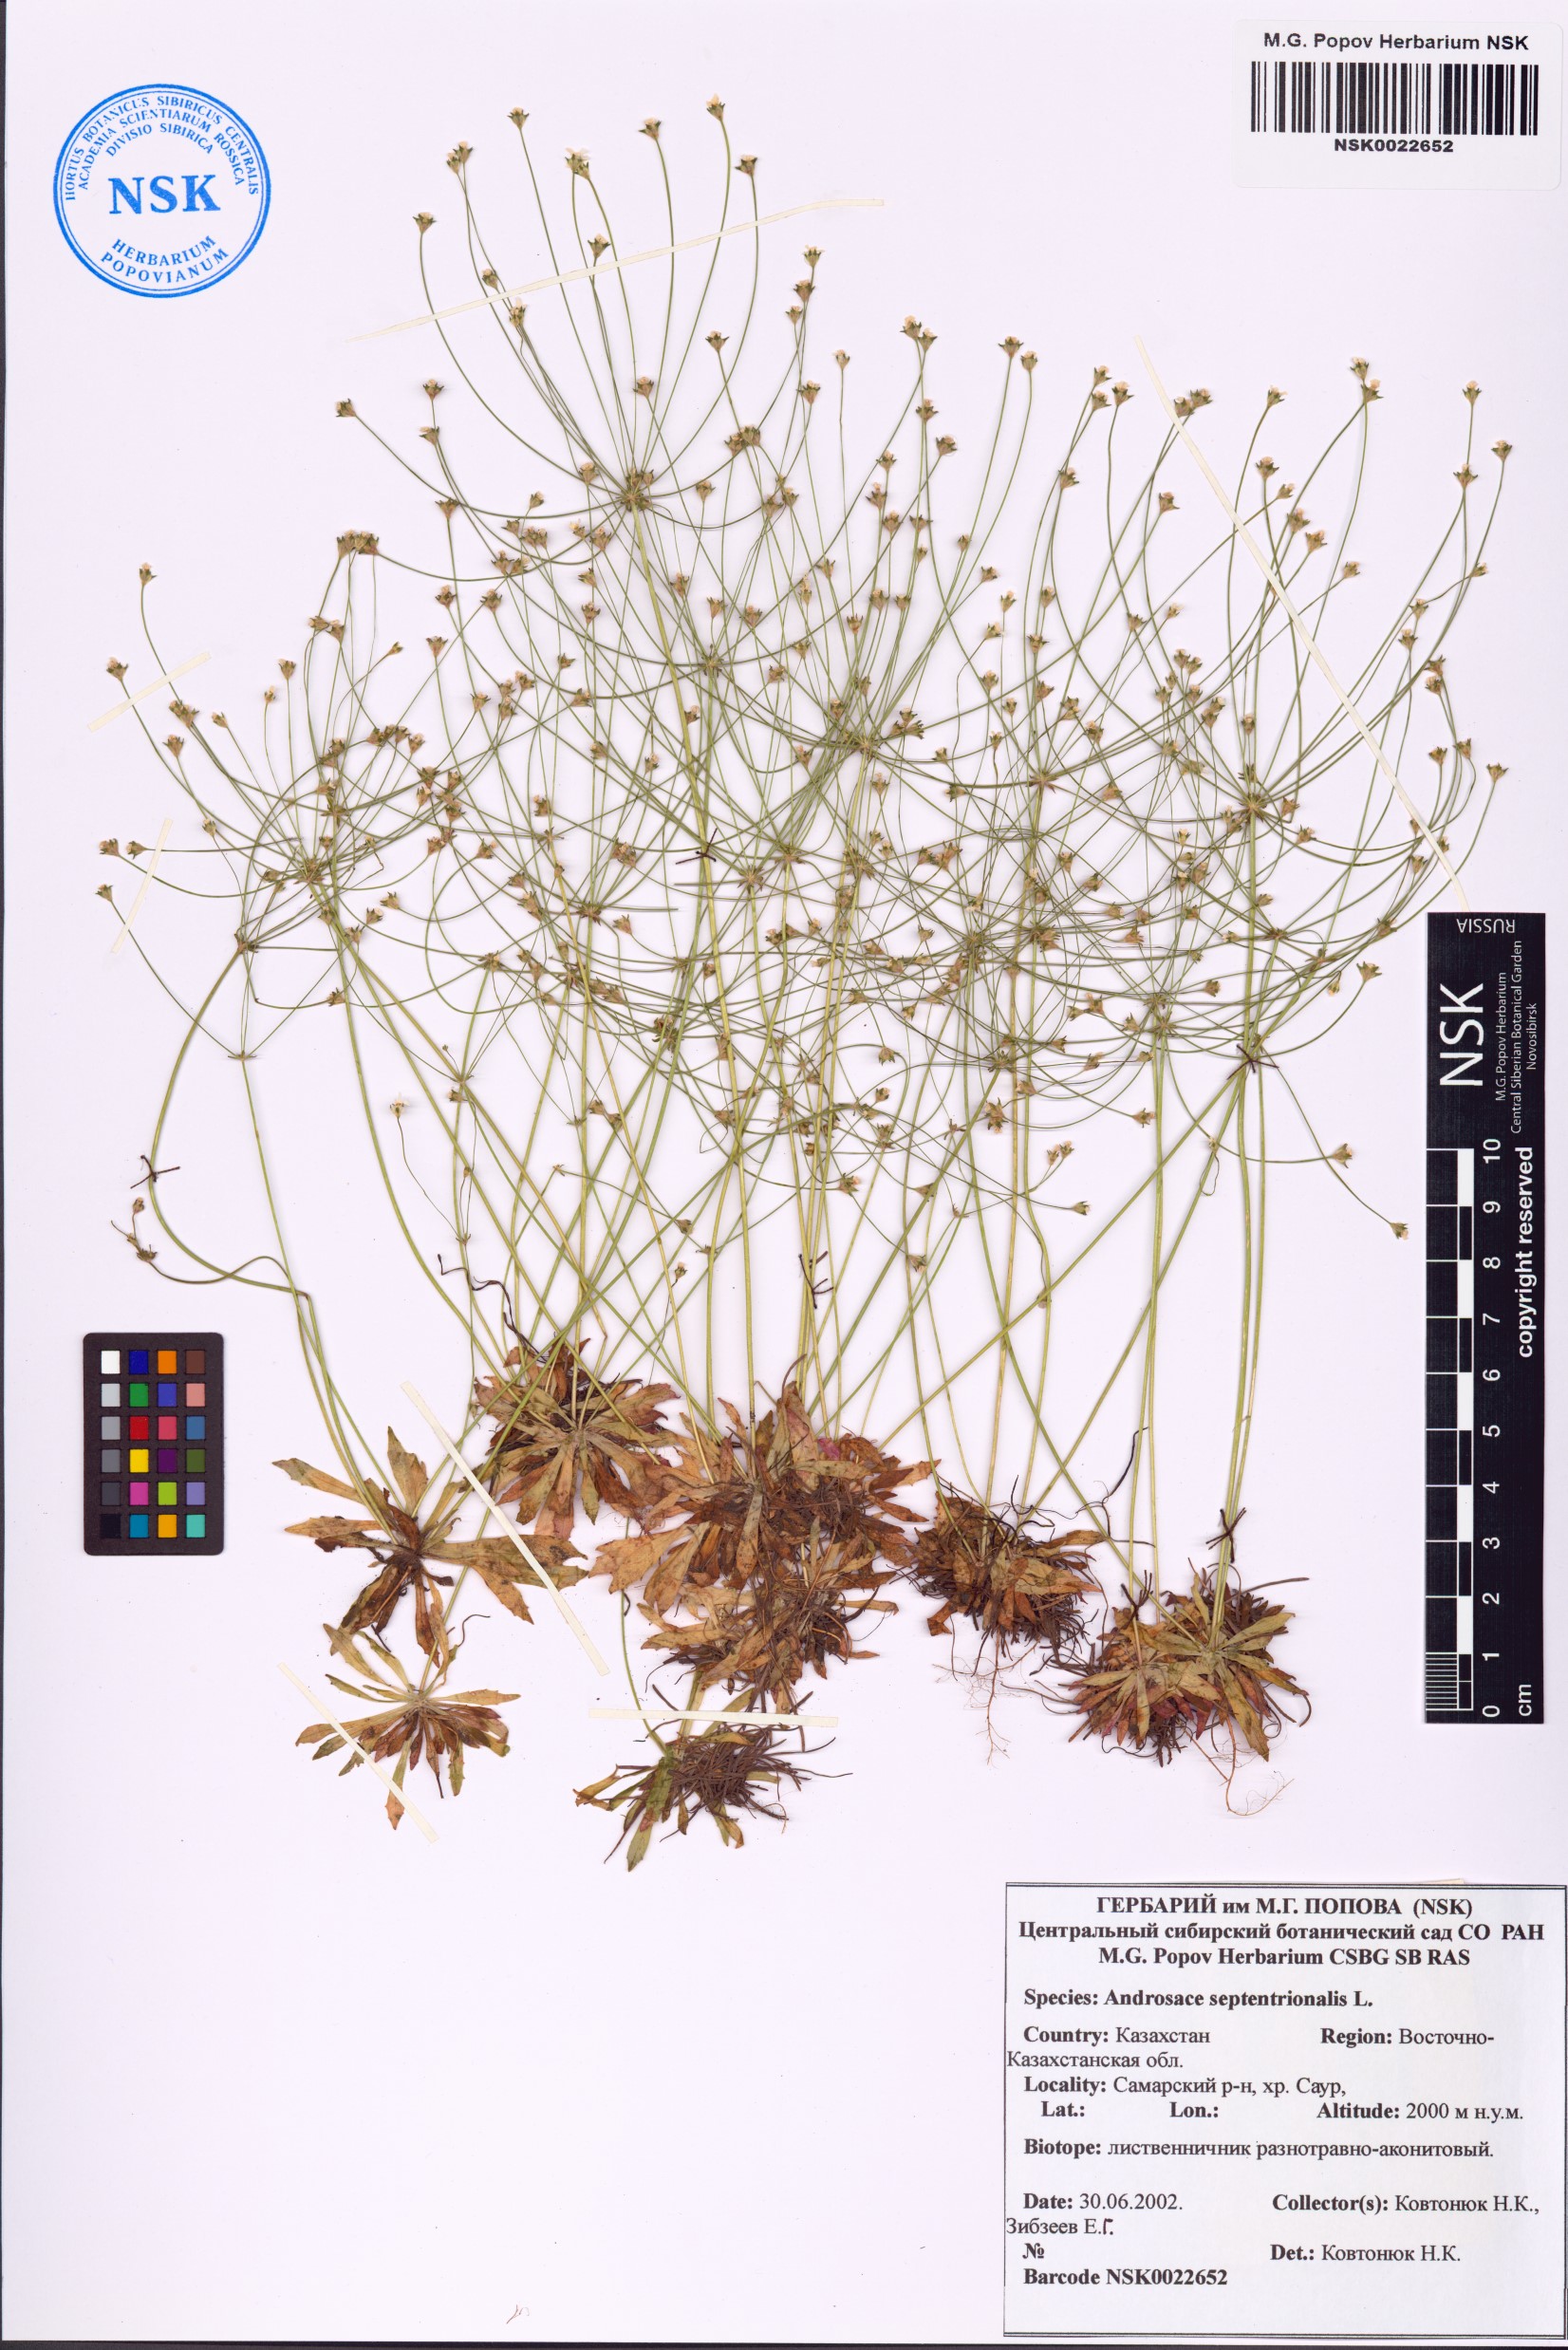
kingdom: Plantae
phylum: Tracheophyta
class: Magnoliopsida
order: Ericales
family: Primulaceae
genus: Androsace
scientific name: Androsace septentrionalis
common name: Hairy northern fairy-candelabra
